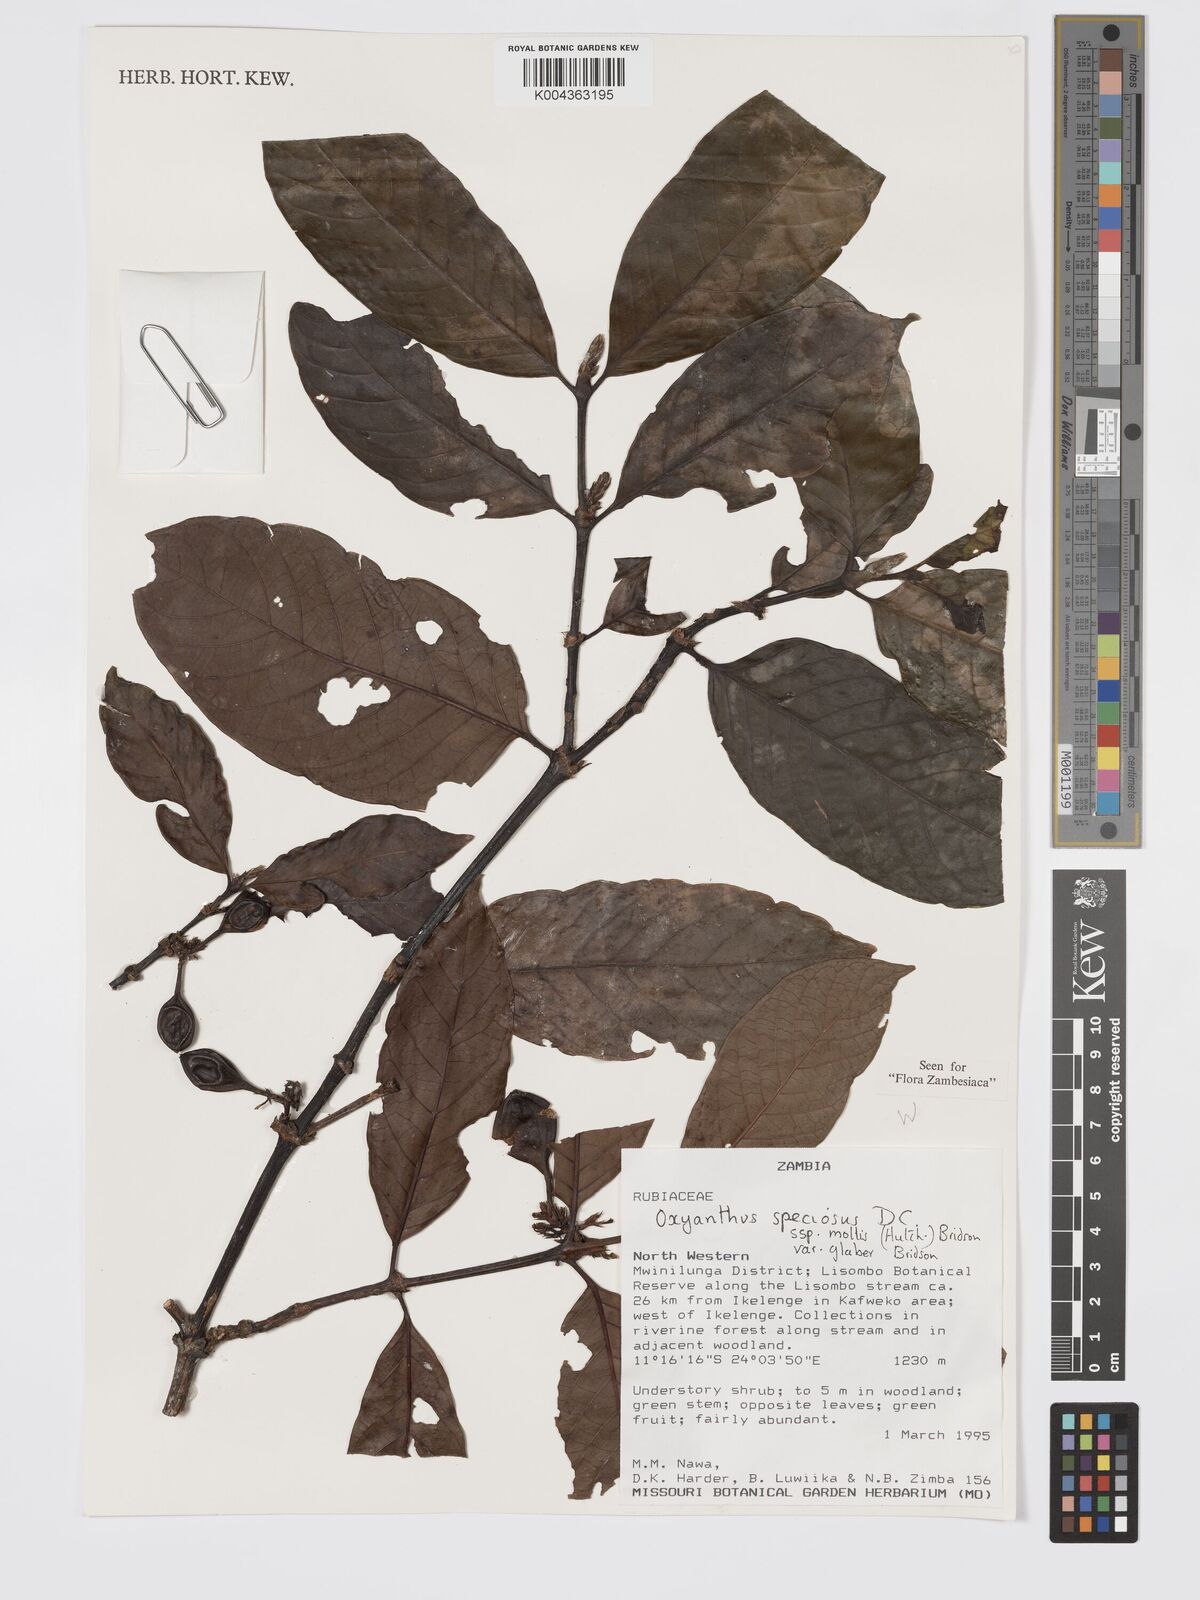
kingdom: Plantae
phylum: Tracheophyta
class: Magnoliopsida
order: Gentianales
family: Rubiaceae
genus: Oxyanthus
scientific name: Oxyanthus speciosus
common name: Whipstick loquat
